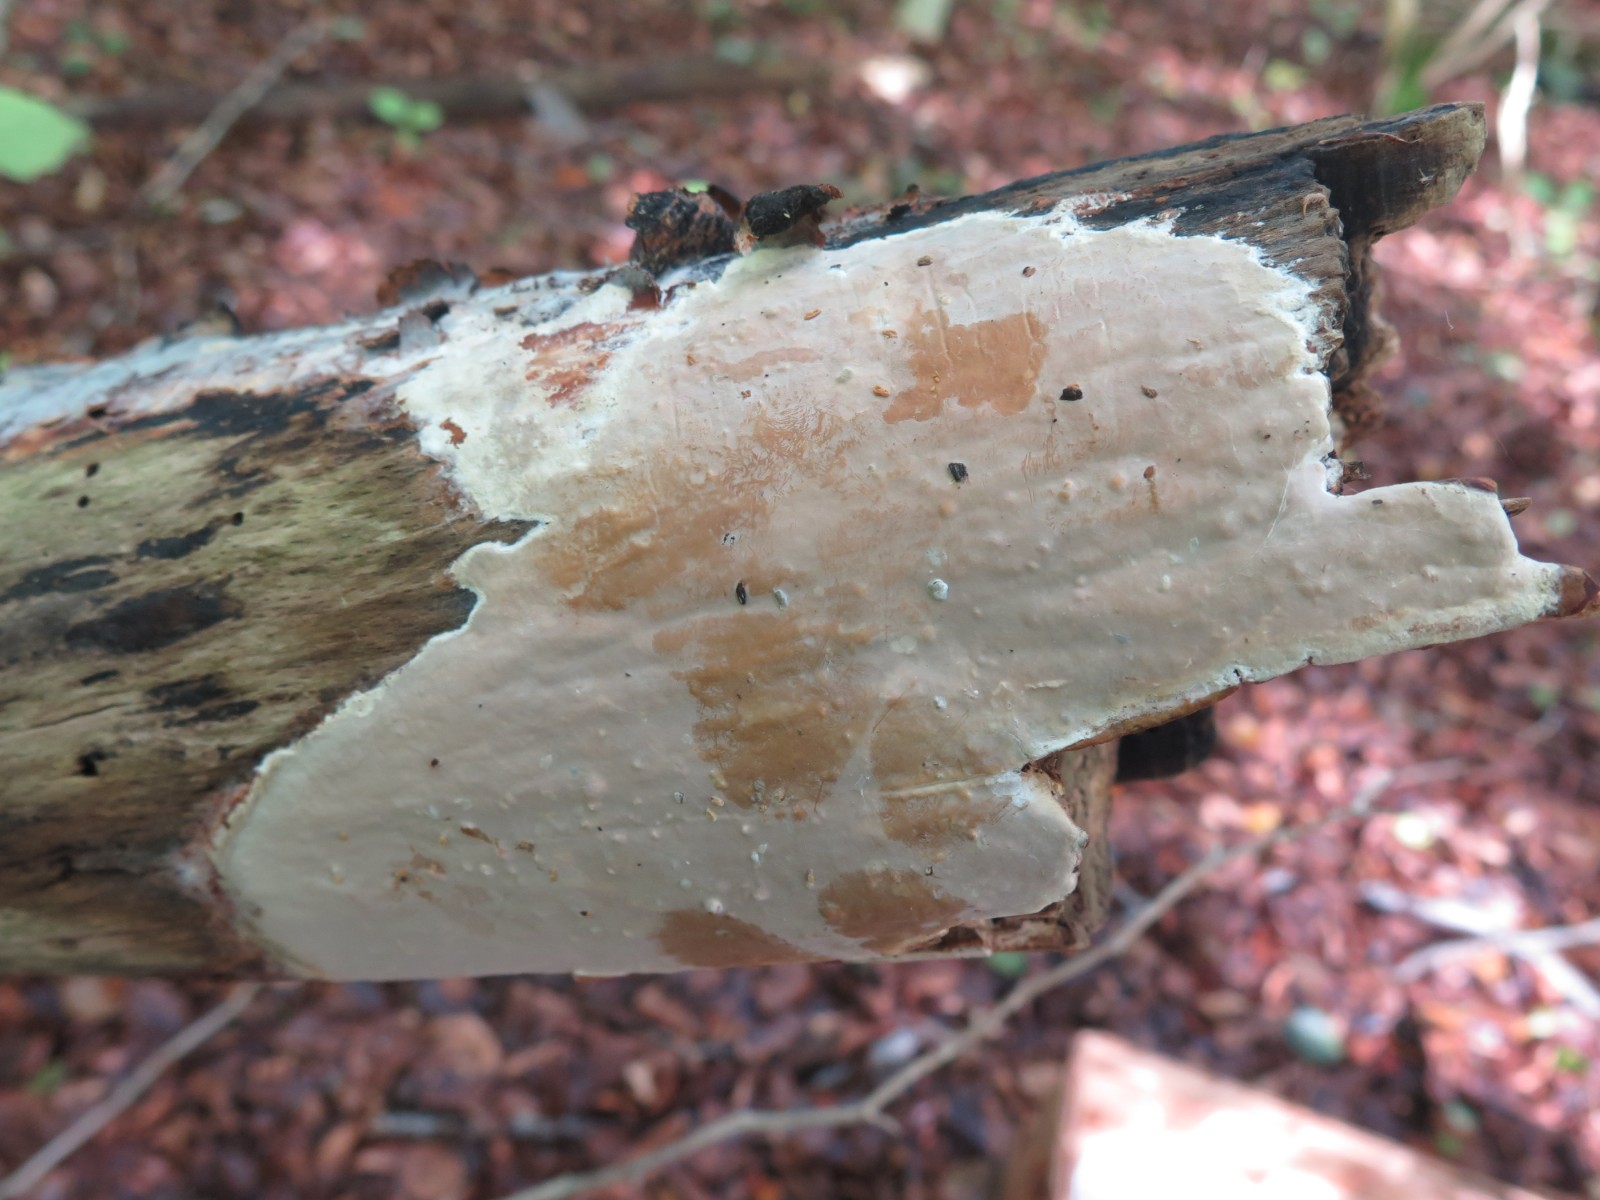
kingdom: Fungi
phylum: Basidiomycota
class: Agaricomycetes
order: Russulales
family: Peniophoraceae
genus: Scytinostroma
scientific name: Scytinostroma hemidichophyticum
